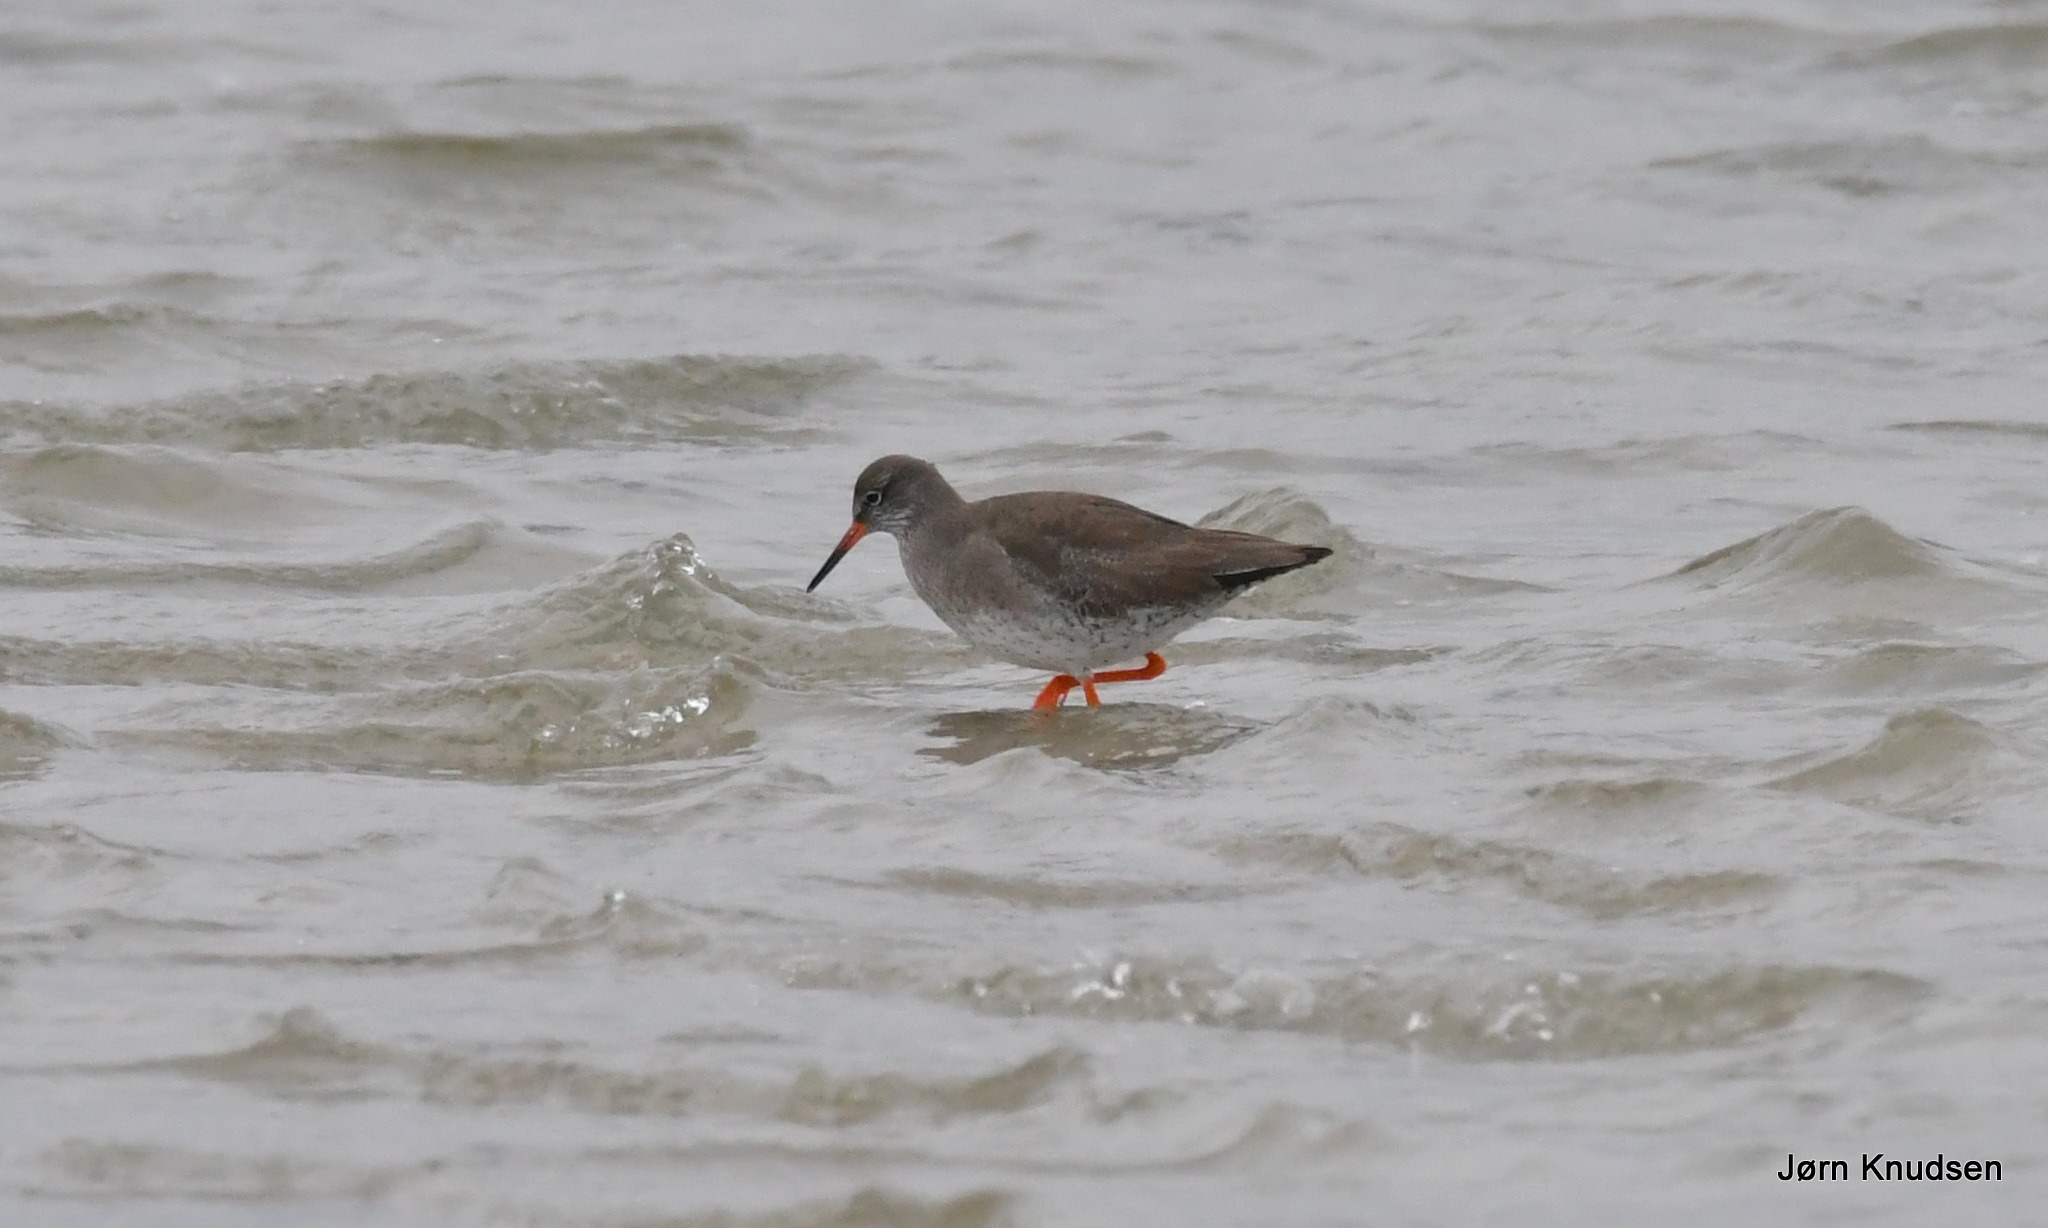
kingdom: Animalia
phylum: Chordata
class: Aves
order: Charadriiformes
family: Scolopacidae
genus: Tringa
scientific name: Tringa totanus
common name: Rødben
